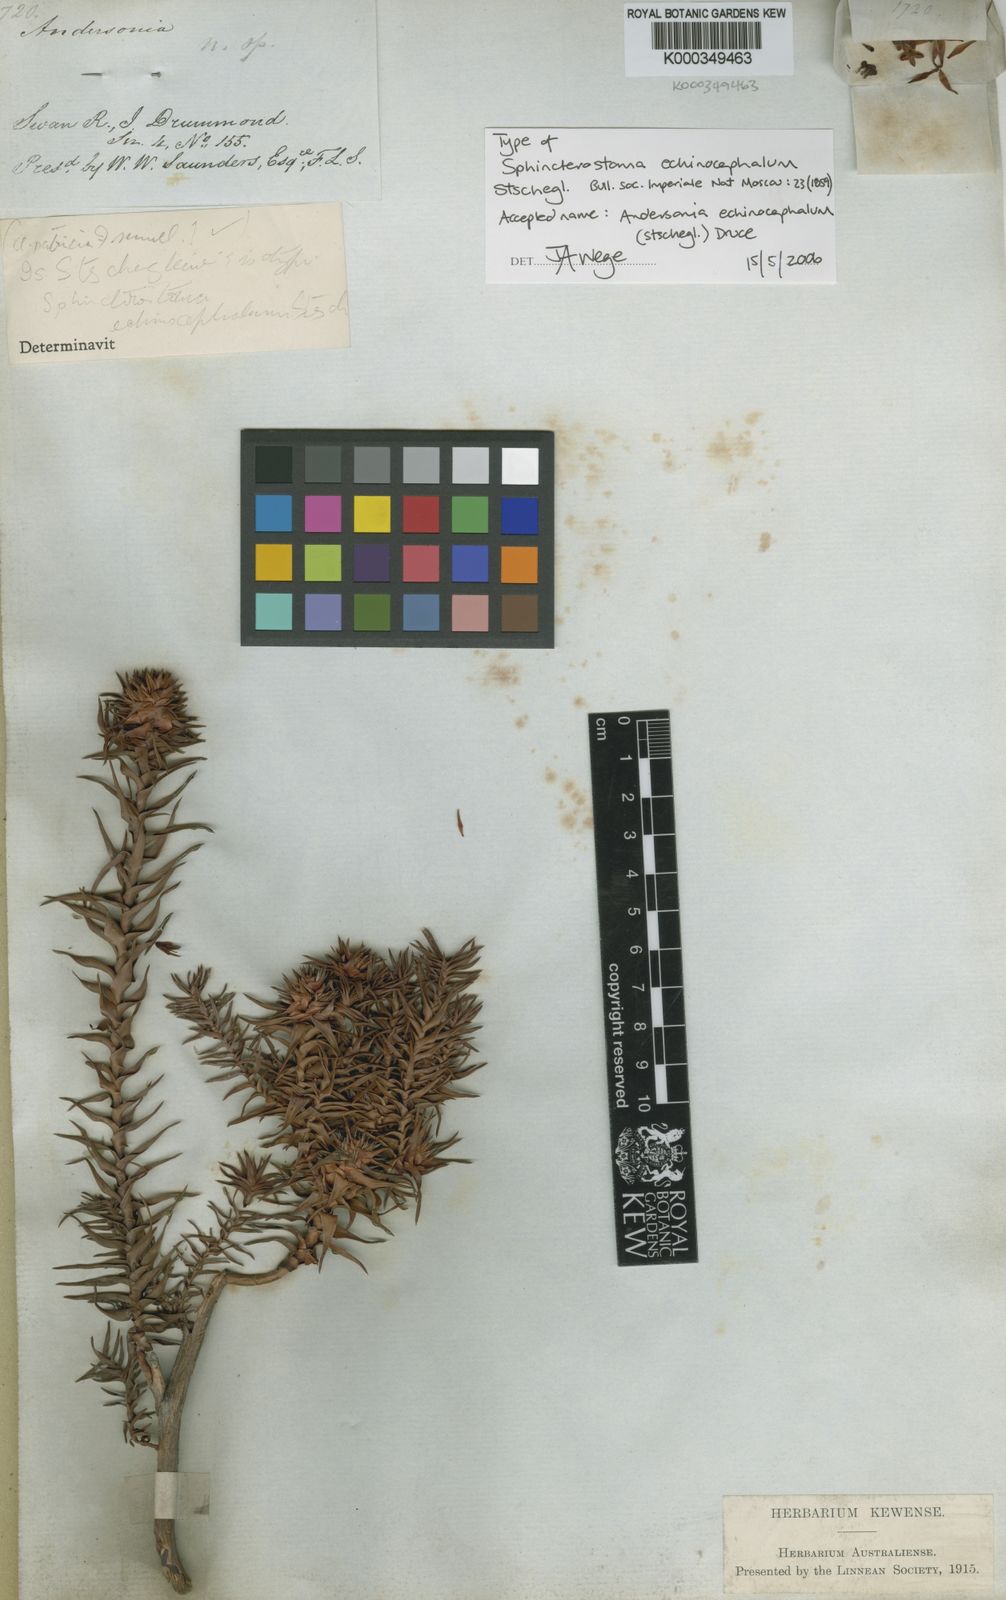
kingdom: Plantae
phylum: Tracheophyta
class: Magnoliopsida
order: Ericales
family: Ericaceae
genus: Andersonia
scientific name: Andersonia echinocephala
